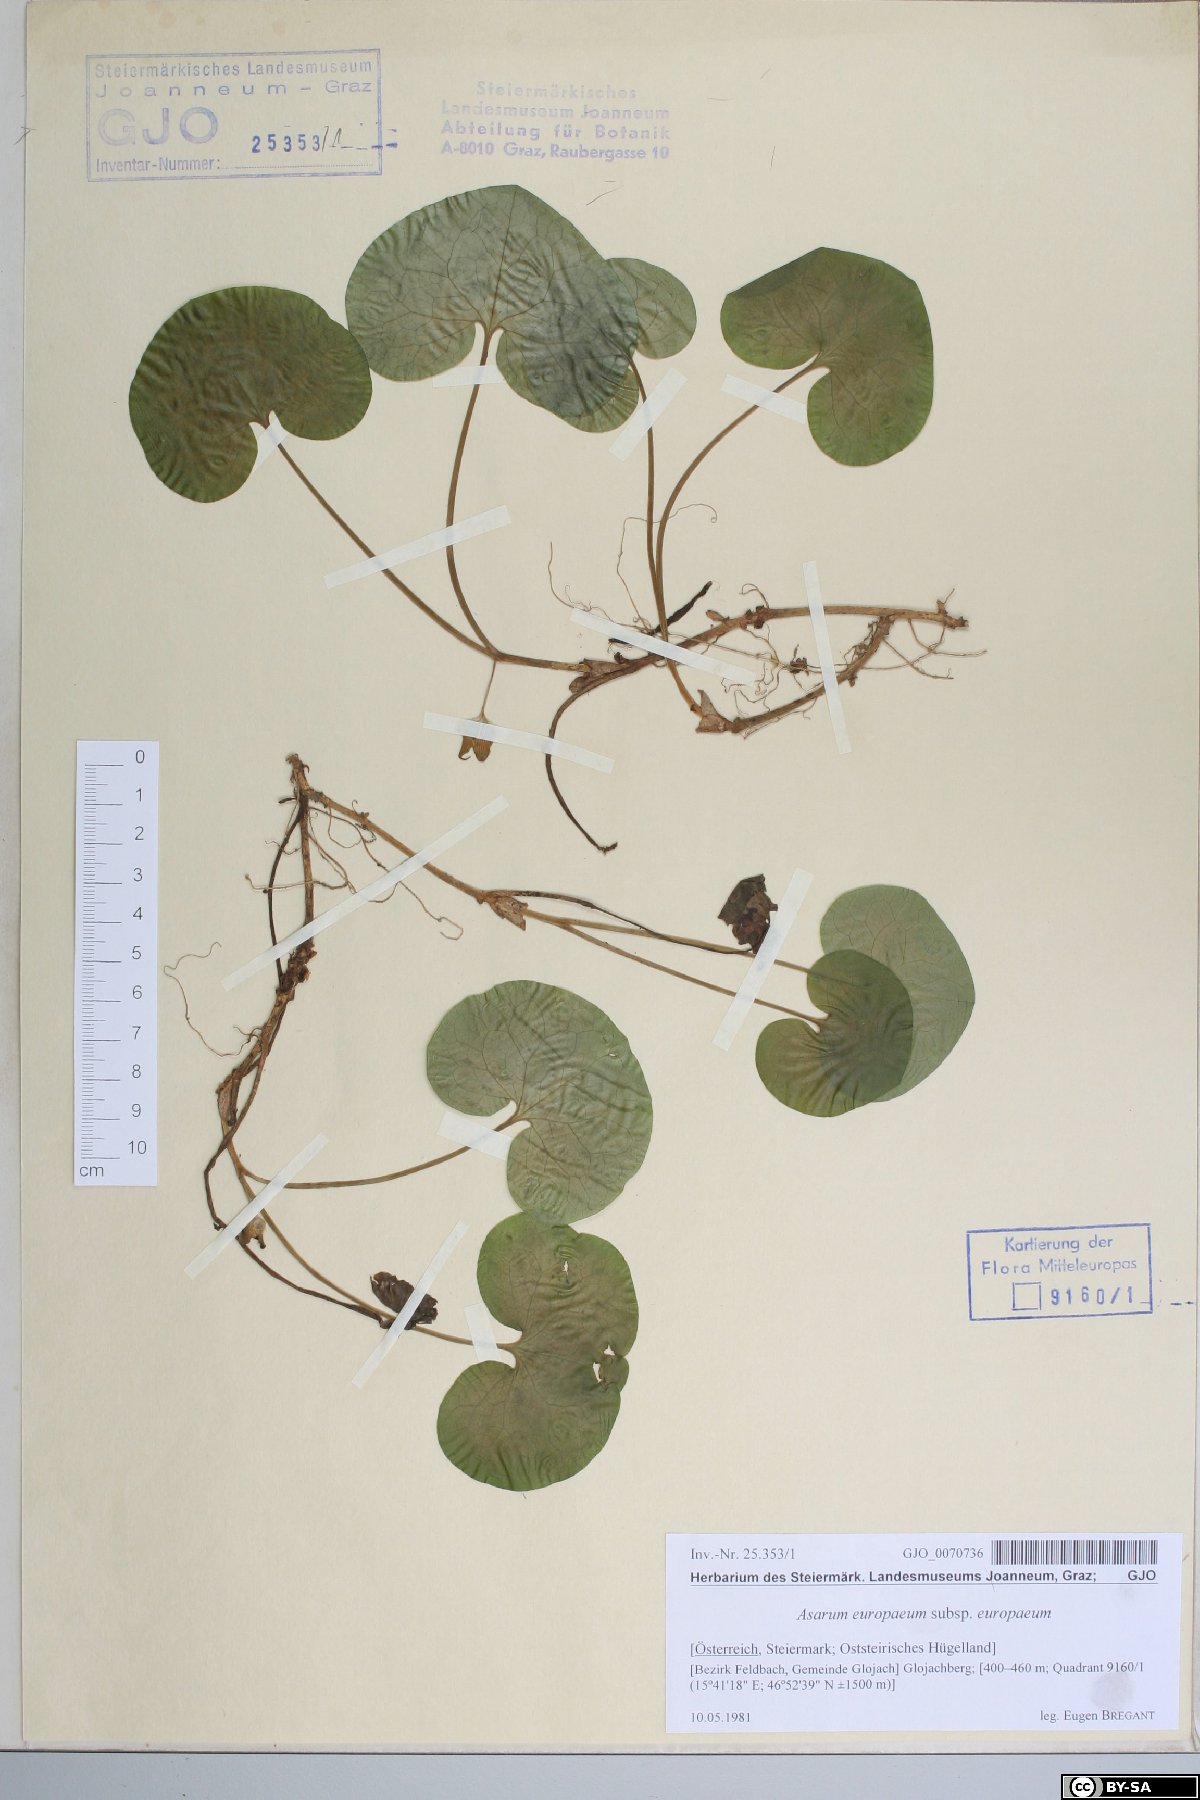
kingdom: Plantae
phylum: Tracheophyta
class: Magnoliopsida
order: Piperales
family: Aristolochiaceae
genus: Asarum
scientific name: Asarum europaeum
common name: Asarabacca
